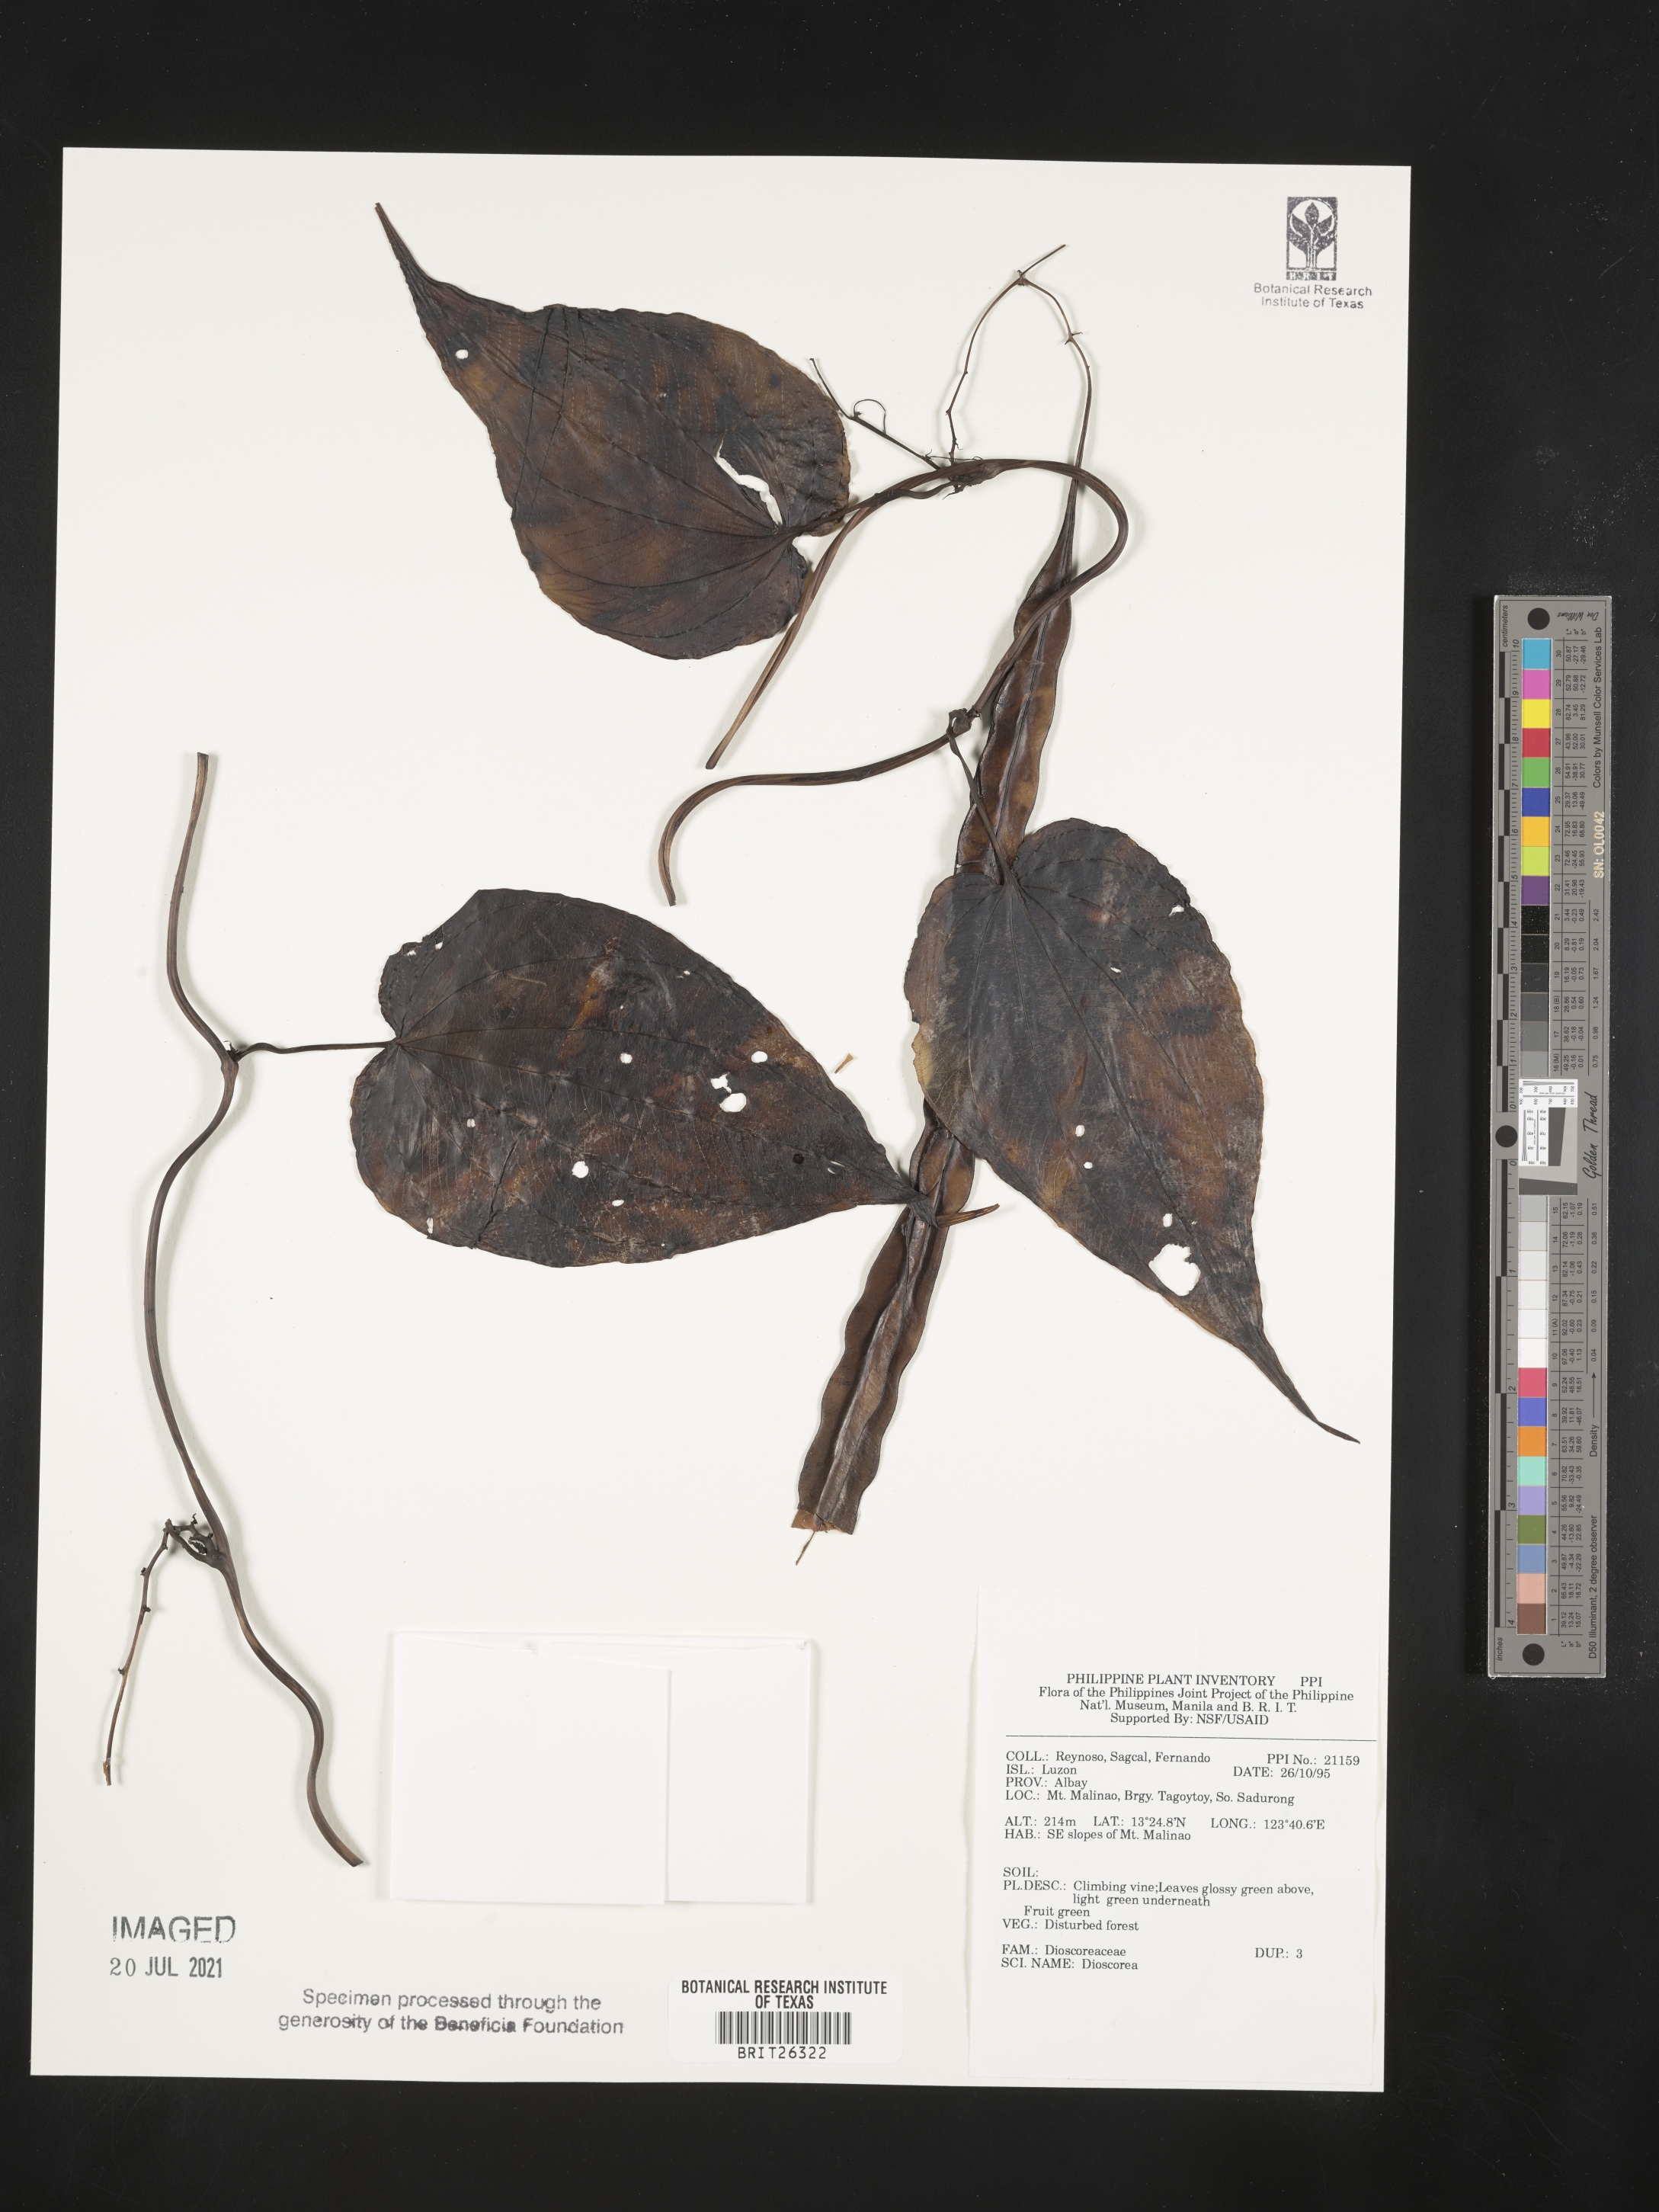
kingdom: Plantae
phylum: Tracheophyta
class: Liliopsida
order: Dioscoreales
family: Dioscoreaceae
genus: Dioscorea
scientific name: Dioscorea
